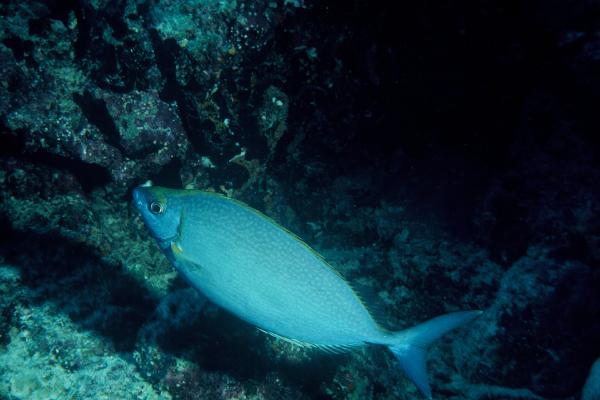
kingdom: Animalia
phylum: Chordata
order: Perciformes
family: Siganidae
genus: Siganus
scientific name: Siganus argenteus
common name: Forktail rabbitfish
